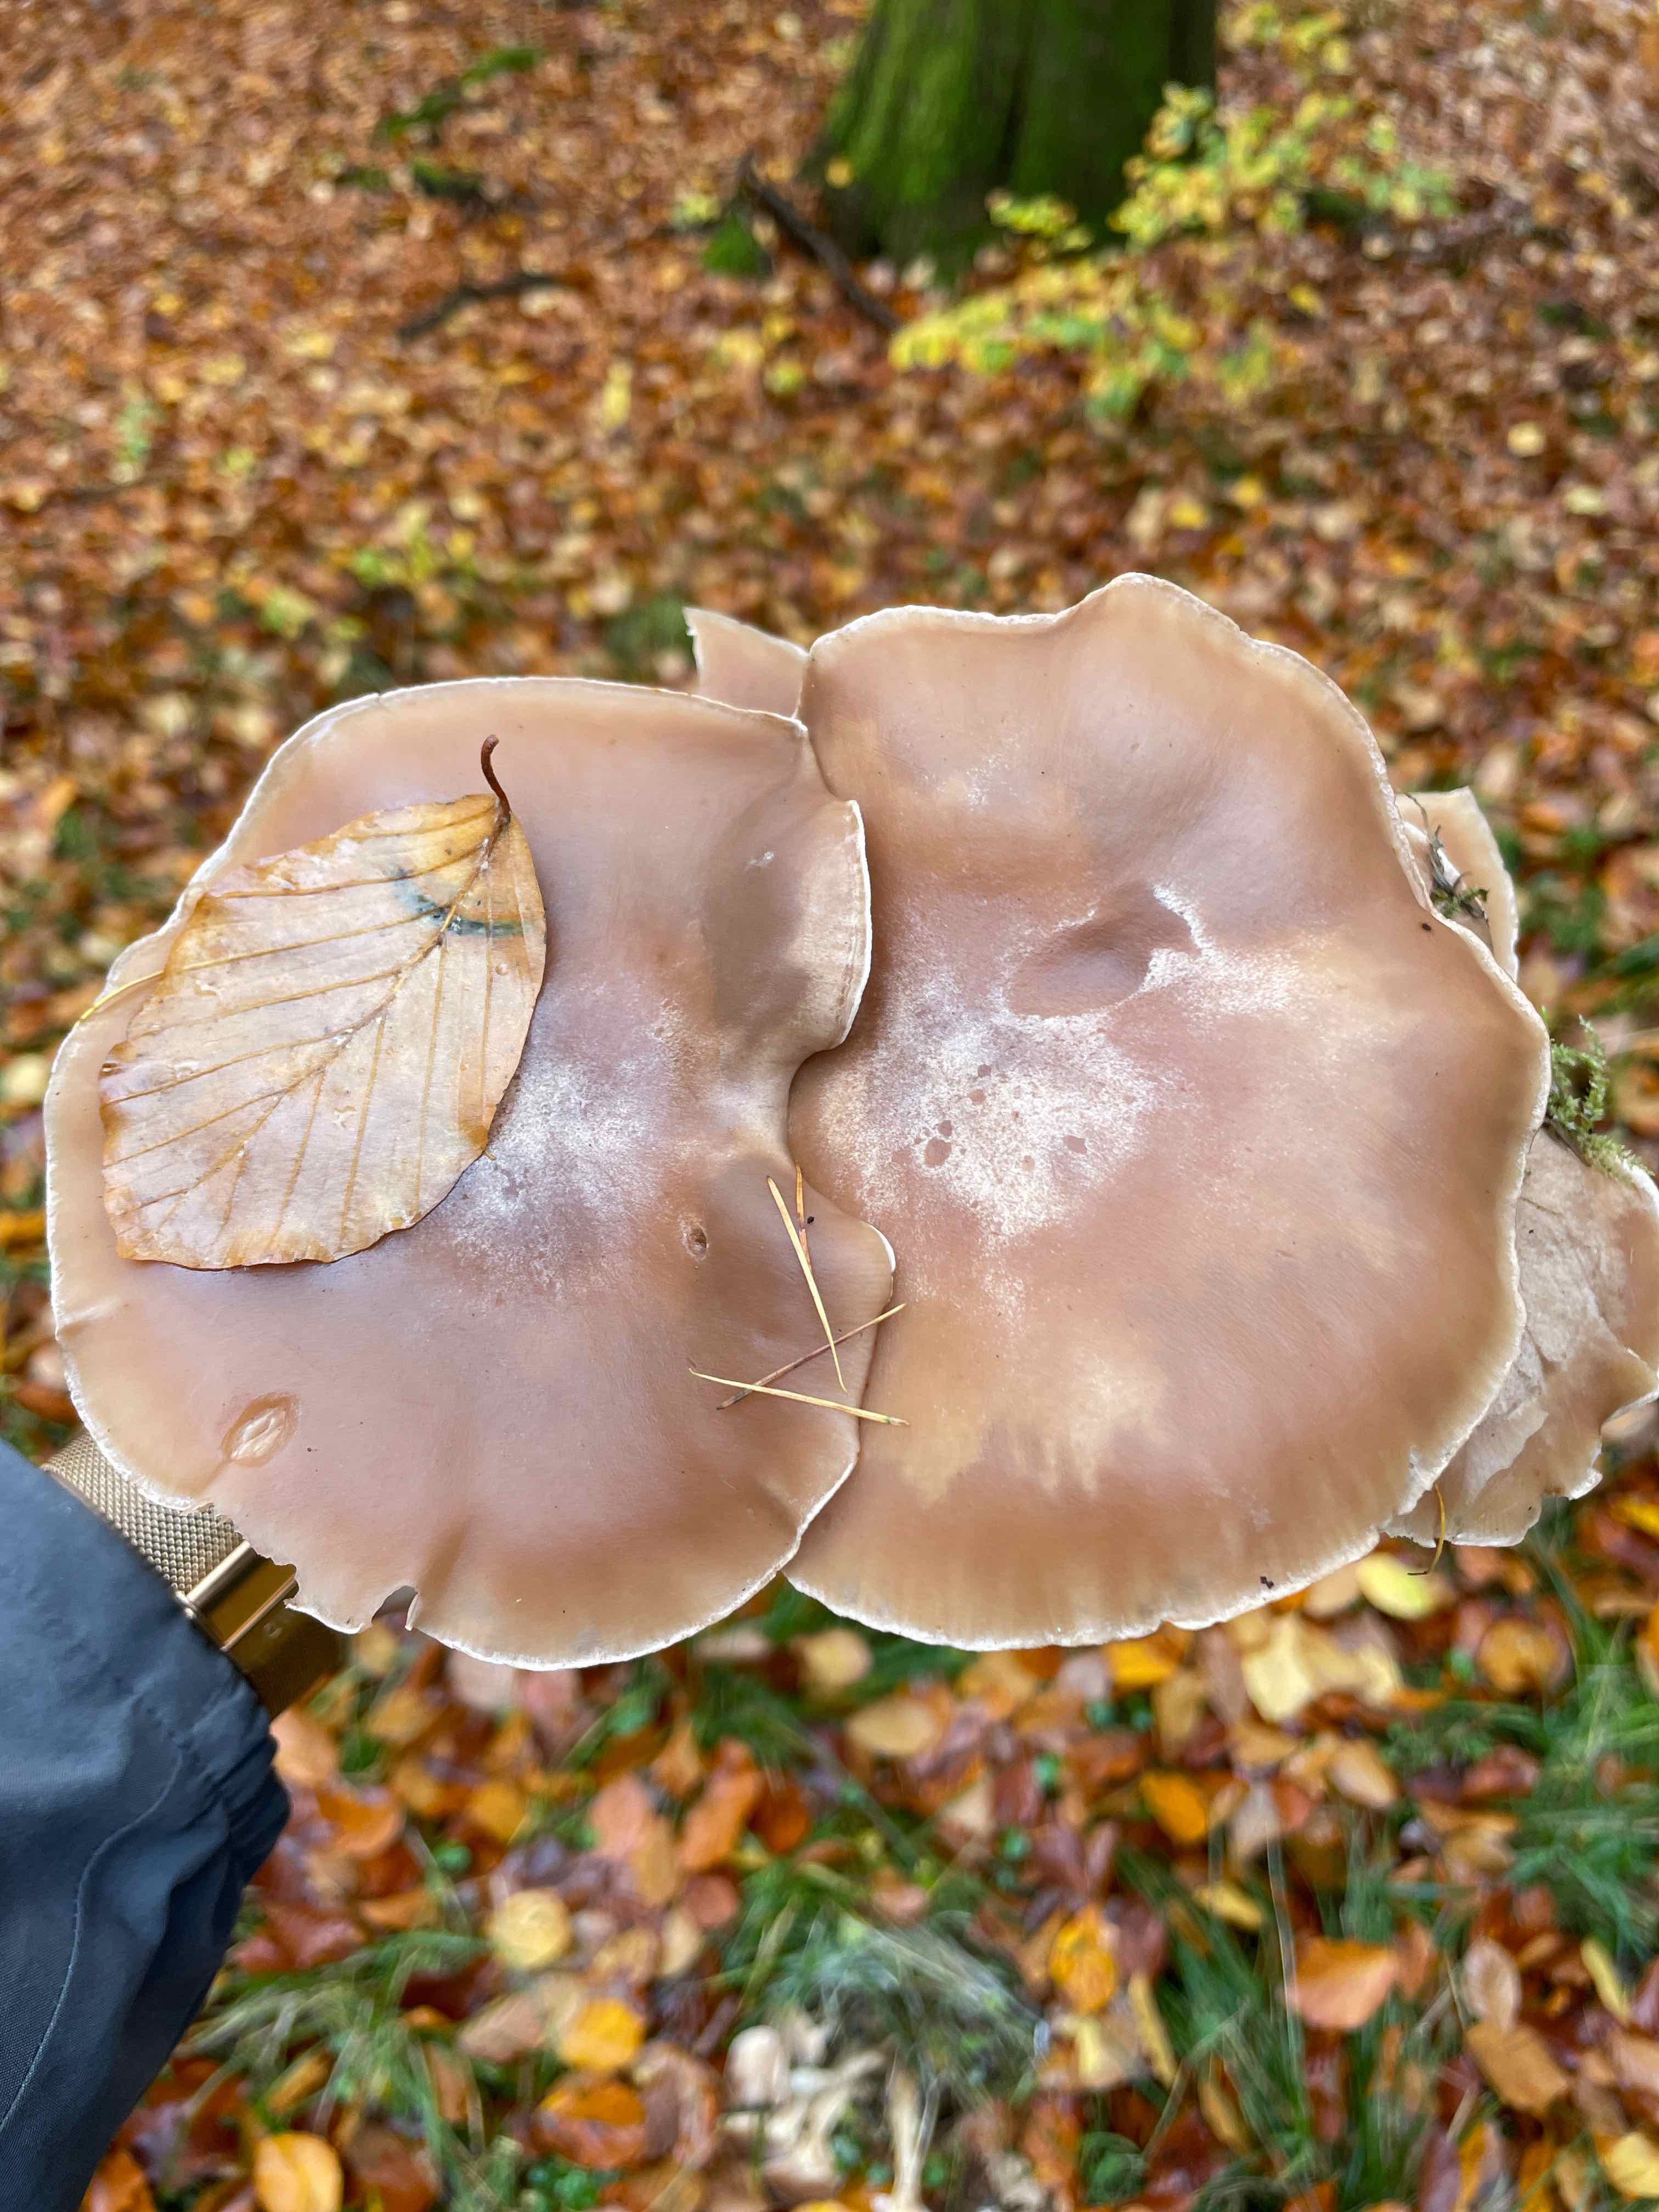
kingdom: Fungi
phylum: Basidiomycota
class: Agaricomycetes
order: Agaricales
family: Tricholomataceae
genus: Lepista
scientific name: Lepista
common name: hekseringshat
